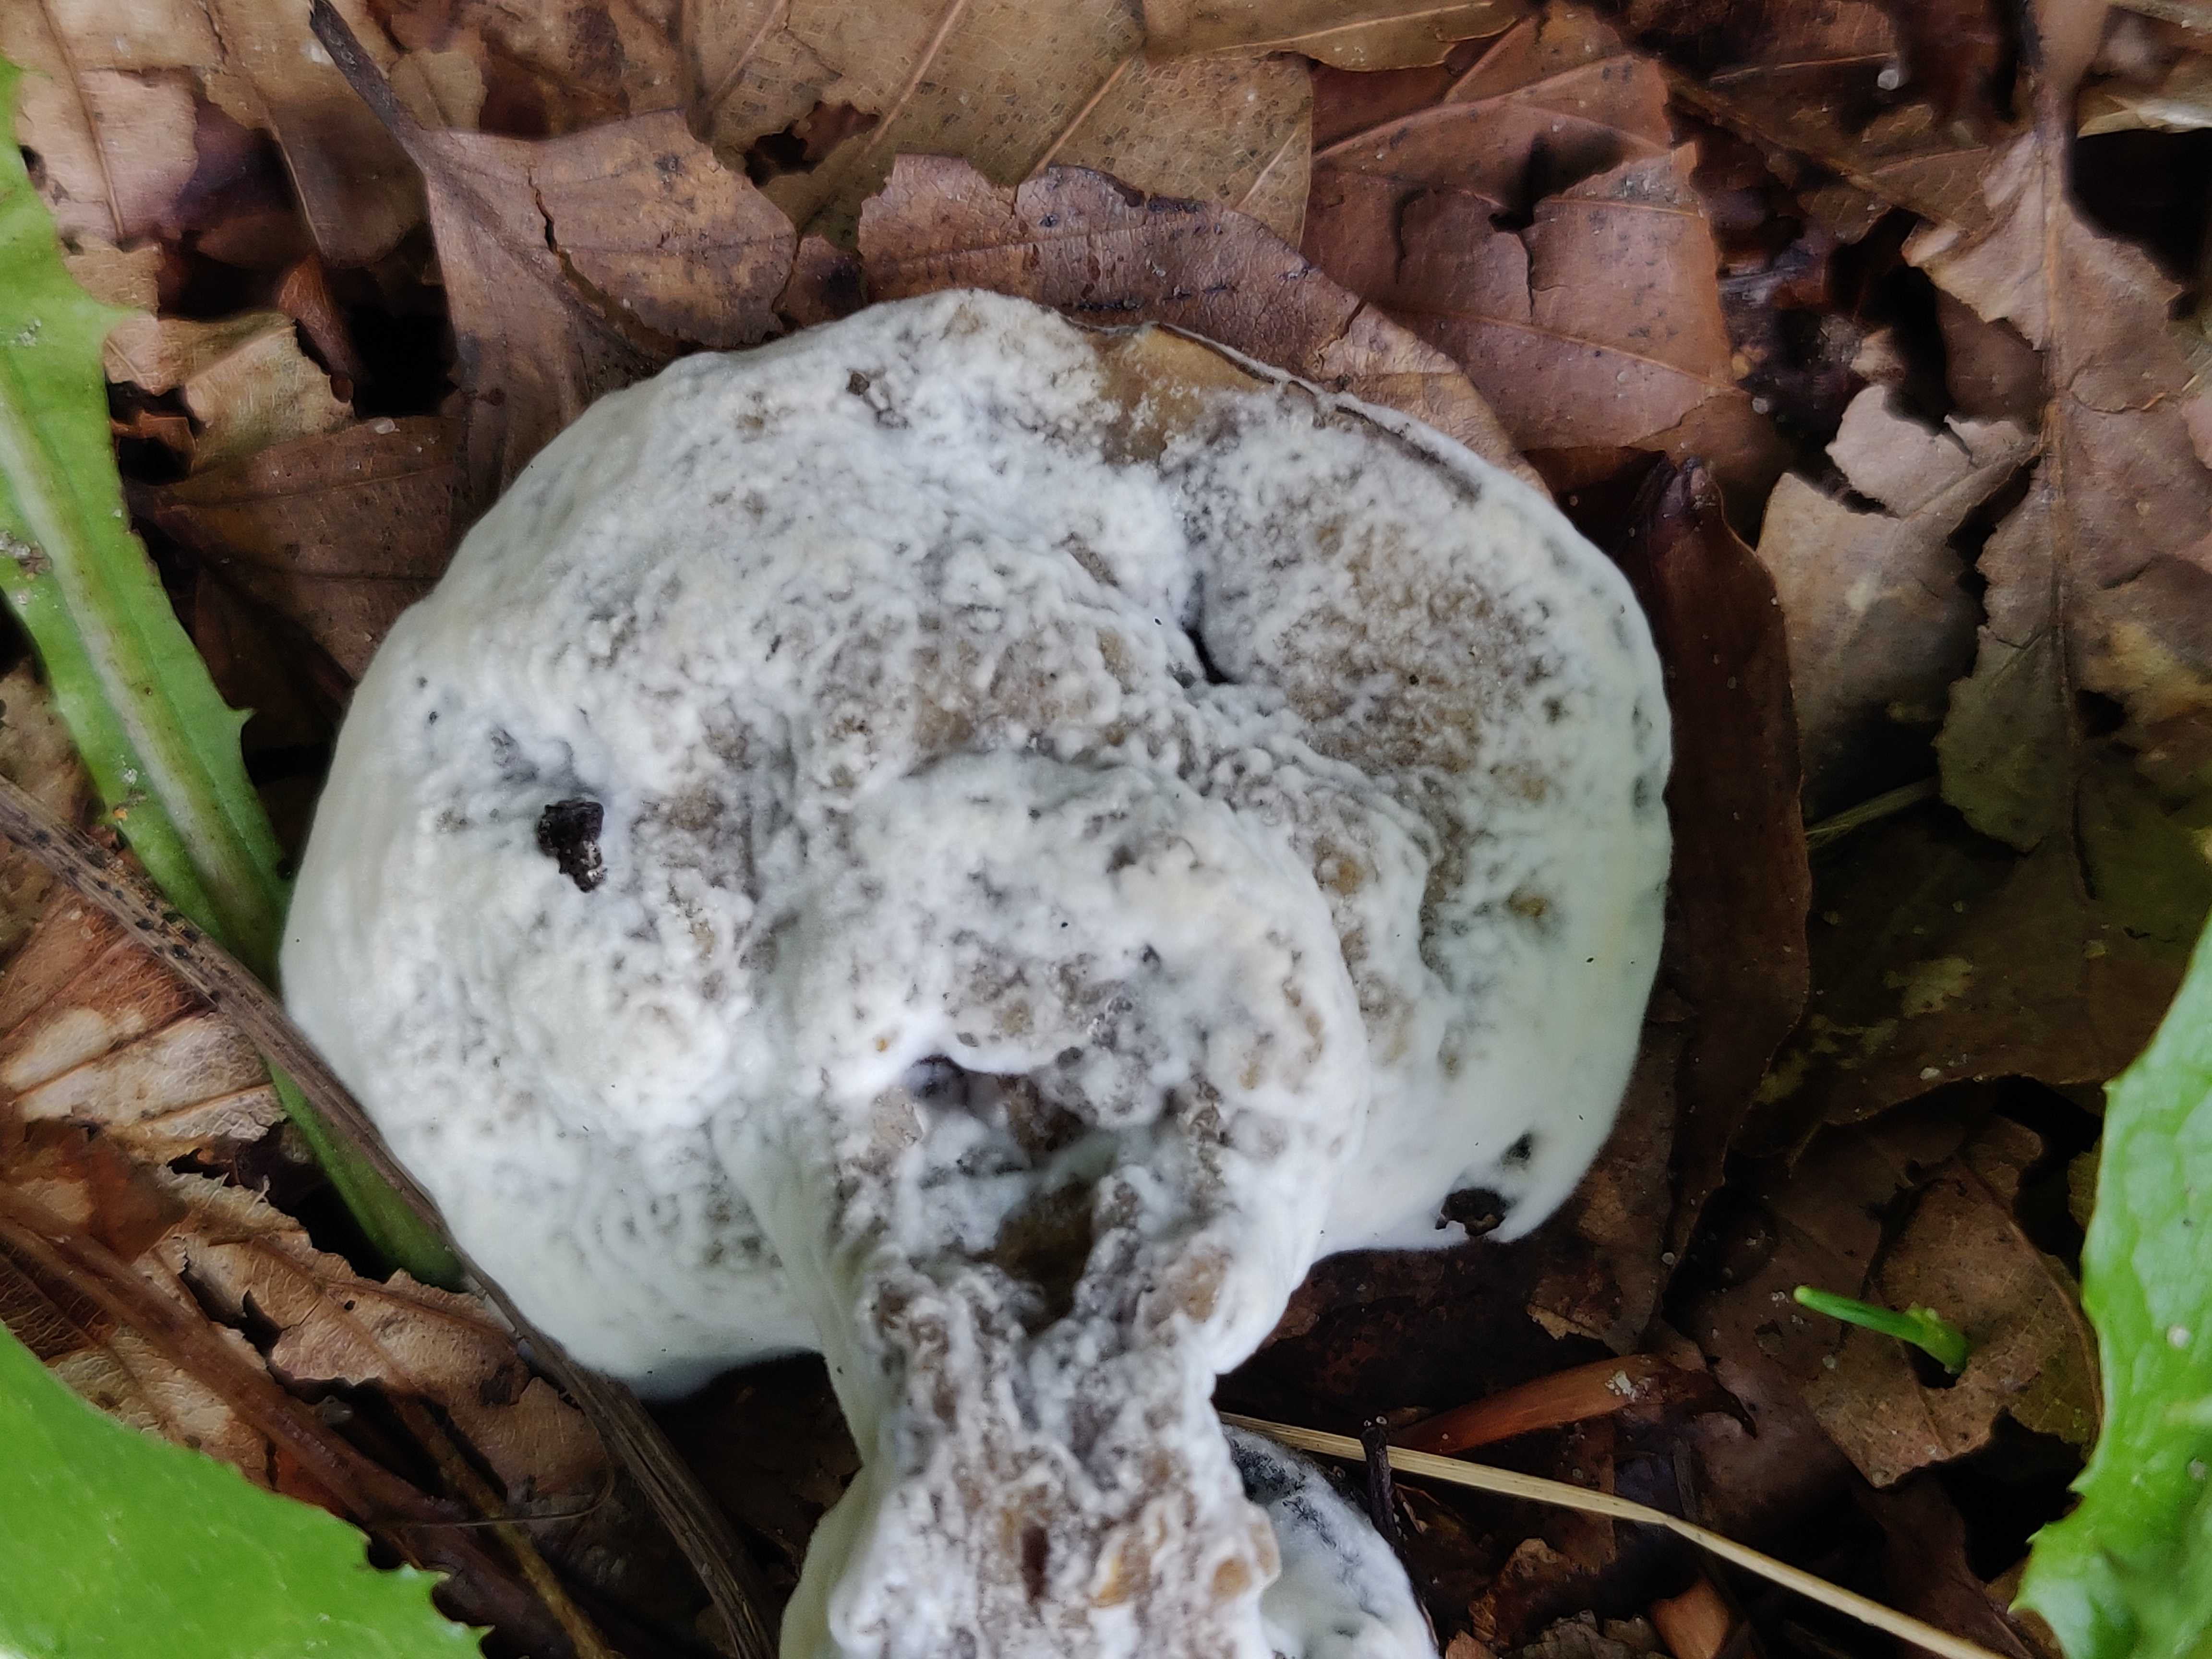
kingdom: Fungi
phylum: Ascomycota
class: Sordariomycetes
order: Hypocreales
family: Hypocreaceae
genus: Hypomyces
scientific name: Hypomyces
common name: snylteskorpe
